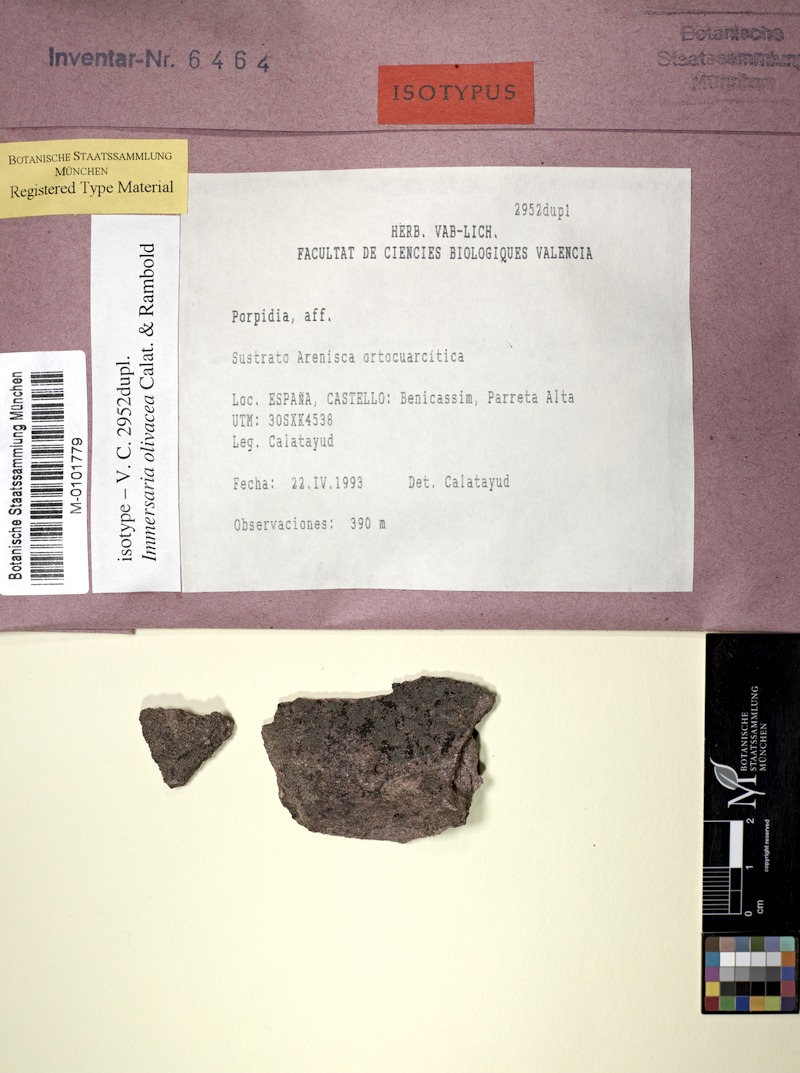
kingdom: Fungi
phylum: Ascomycota
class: Lecanoromycetes
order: Lecideales
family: Lecideaceae
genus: Immersaria
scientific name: Immersaria
